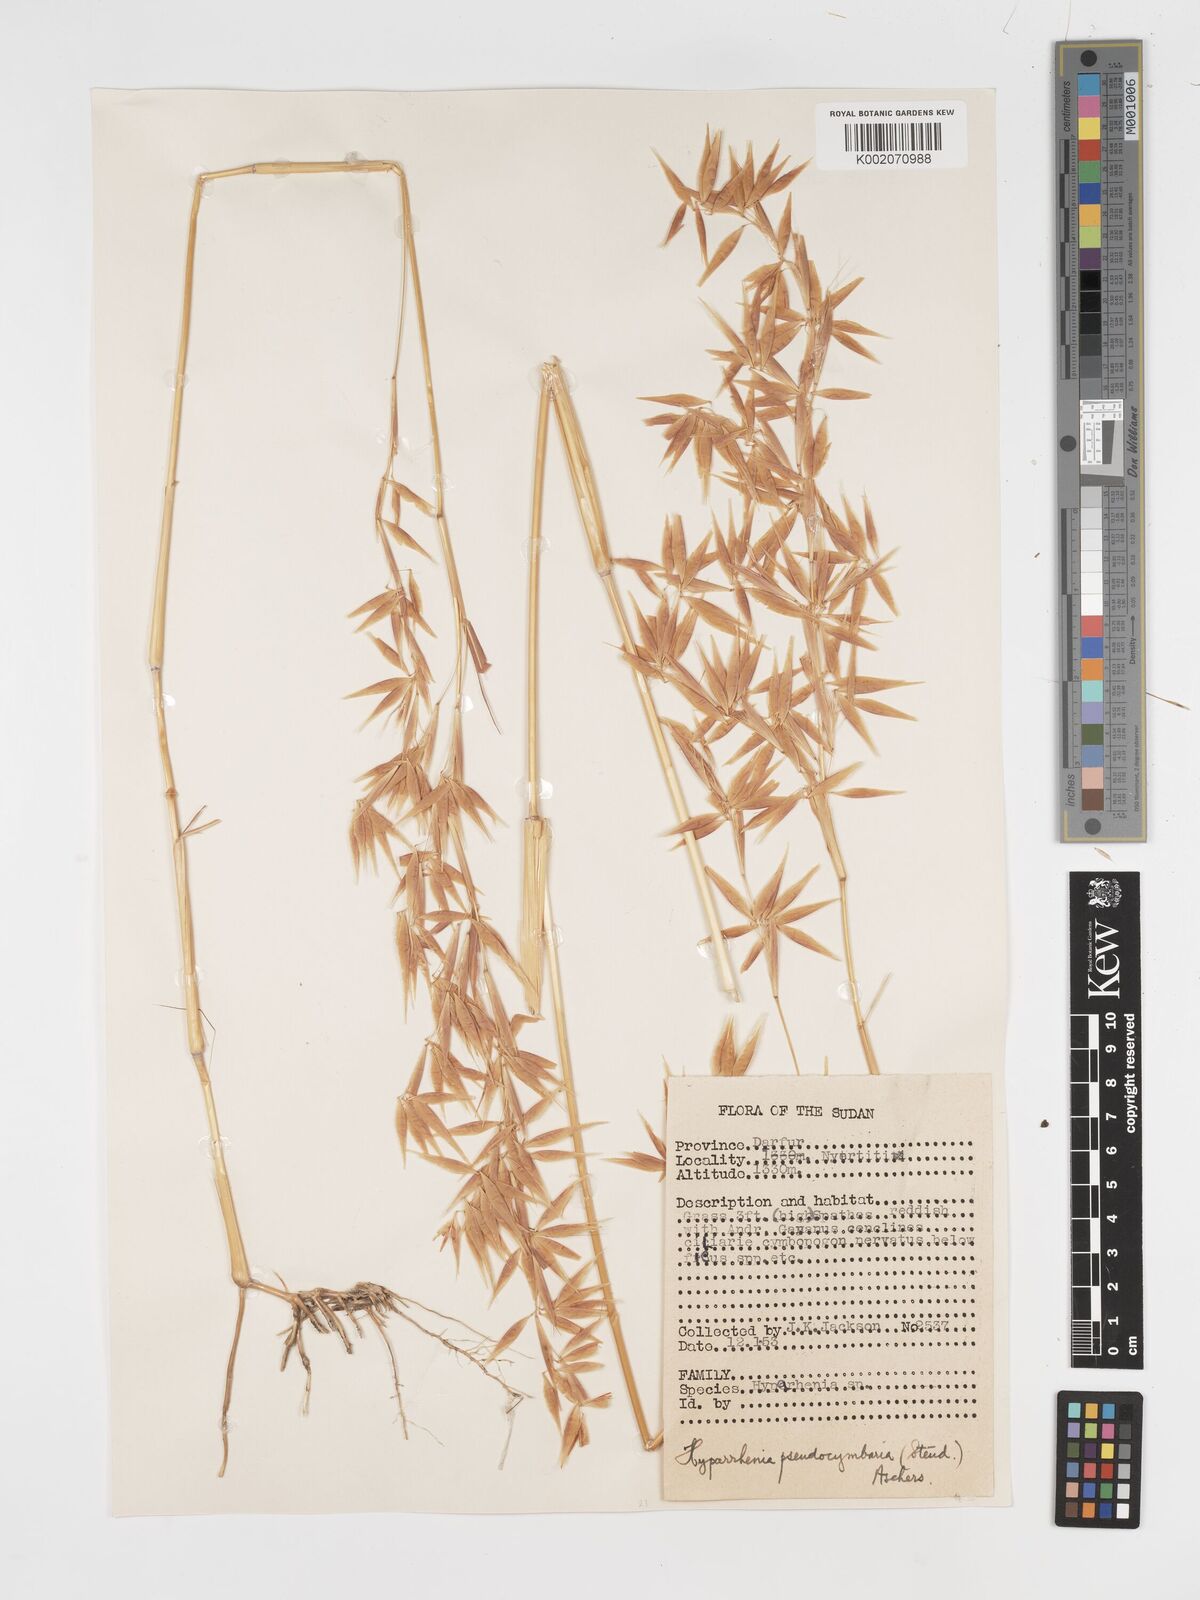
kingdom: Plantae
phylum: Tracheophyta
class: Liliopsida
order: Poales
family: Poaceae
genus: Hyparrhenia
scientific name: Hyparrhenia anthistirioides
